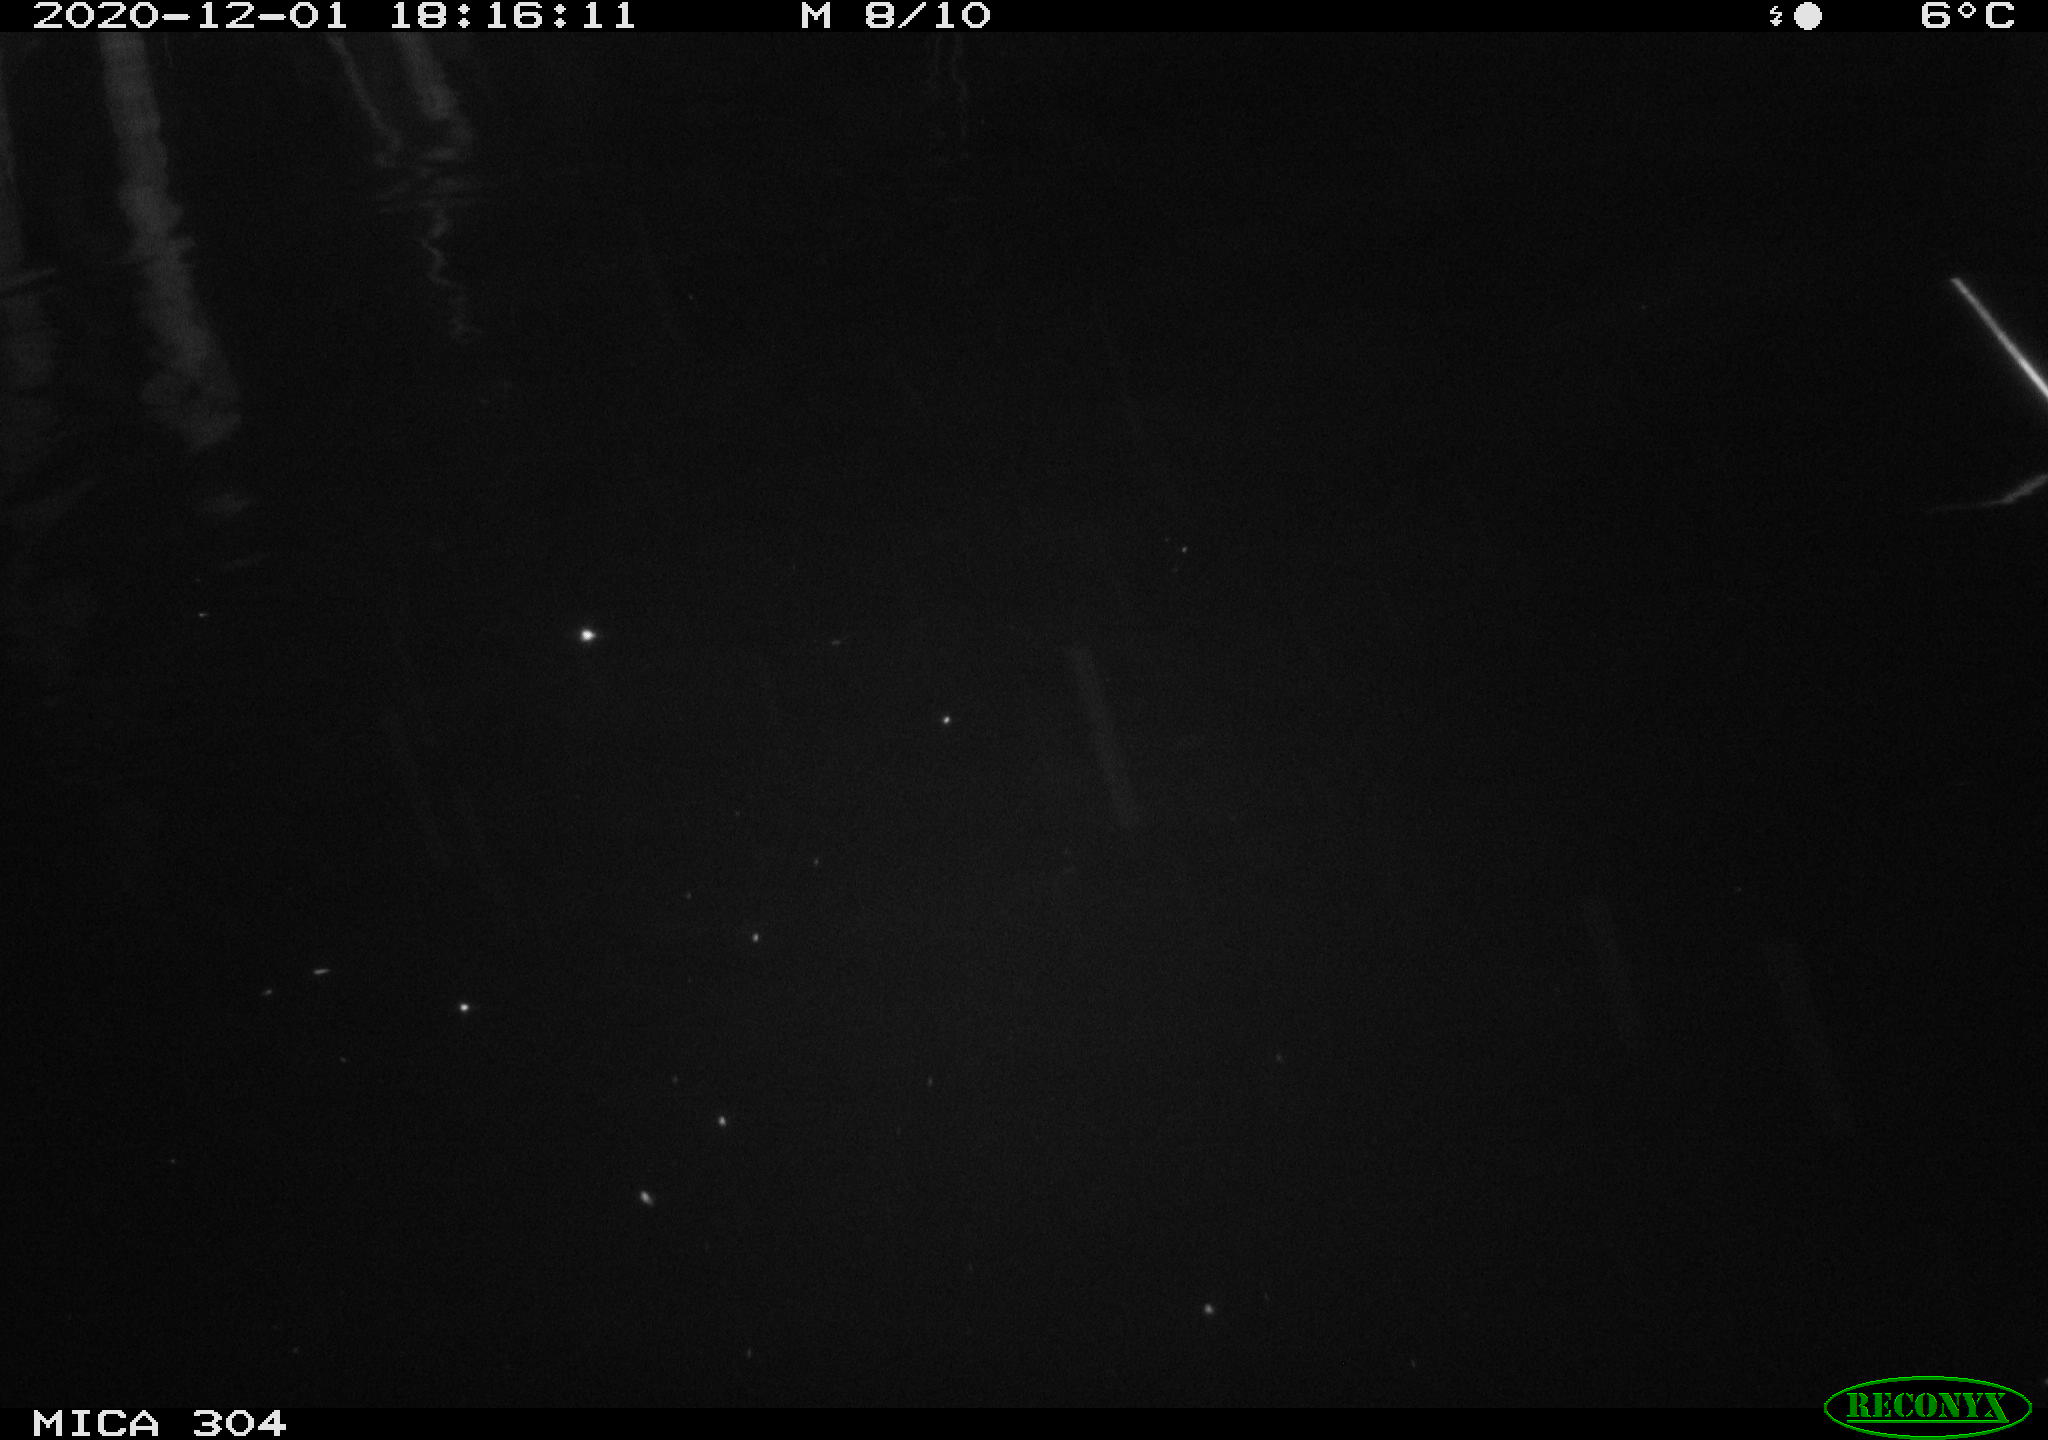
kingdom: Animalia
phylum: Chordata
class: Mammalia
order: Rodentia
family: Muridae
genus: Rattus
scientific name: Rattus norvegicus
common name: Brown rat
